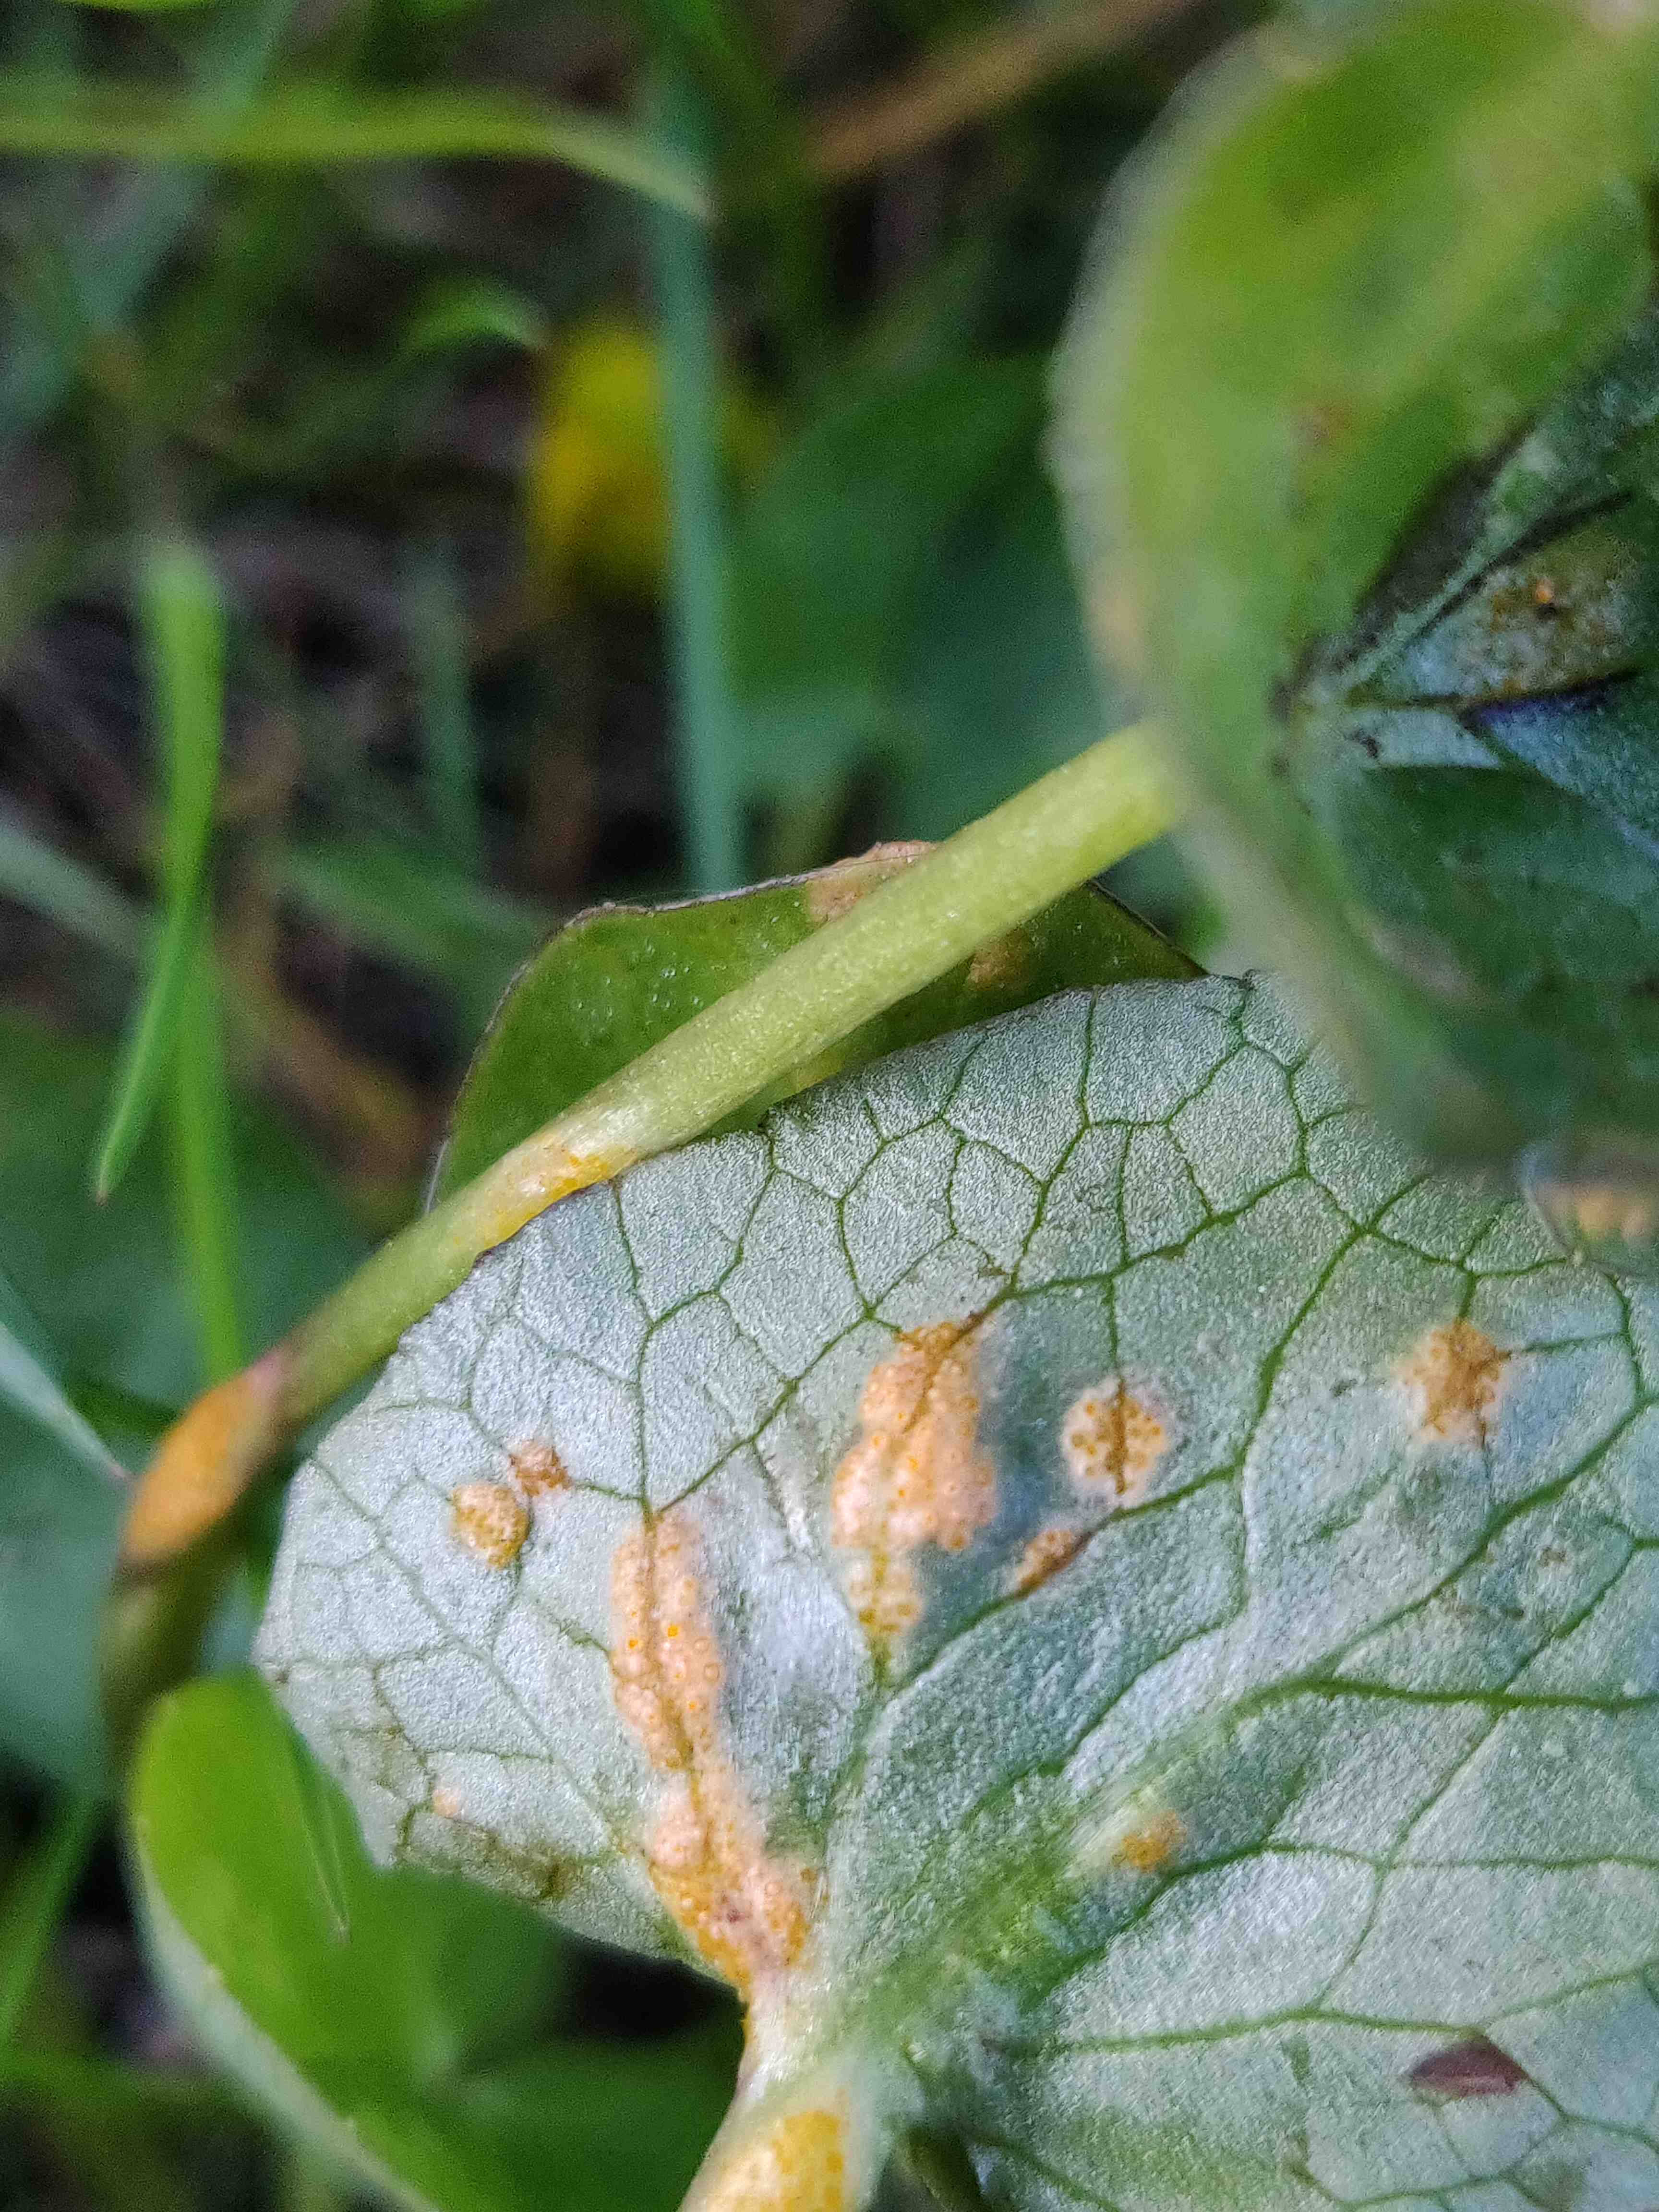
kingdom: Fungi
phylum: Basidiomycota
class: Pucciniomycetes
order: Pucciniales
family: Pucciniaceae
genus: Uromyces
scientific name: Uromyces dactylidis
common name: ranunkel-encellerust
